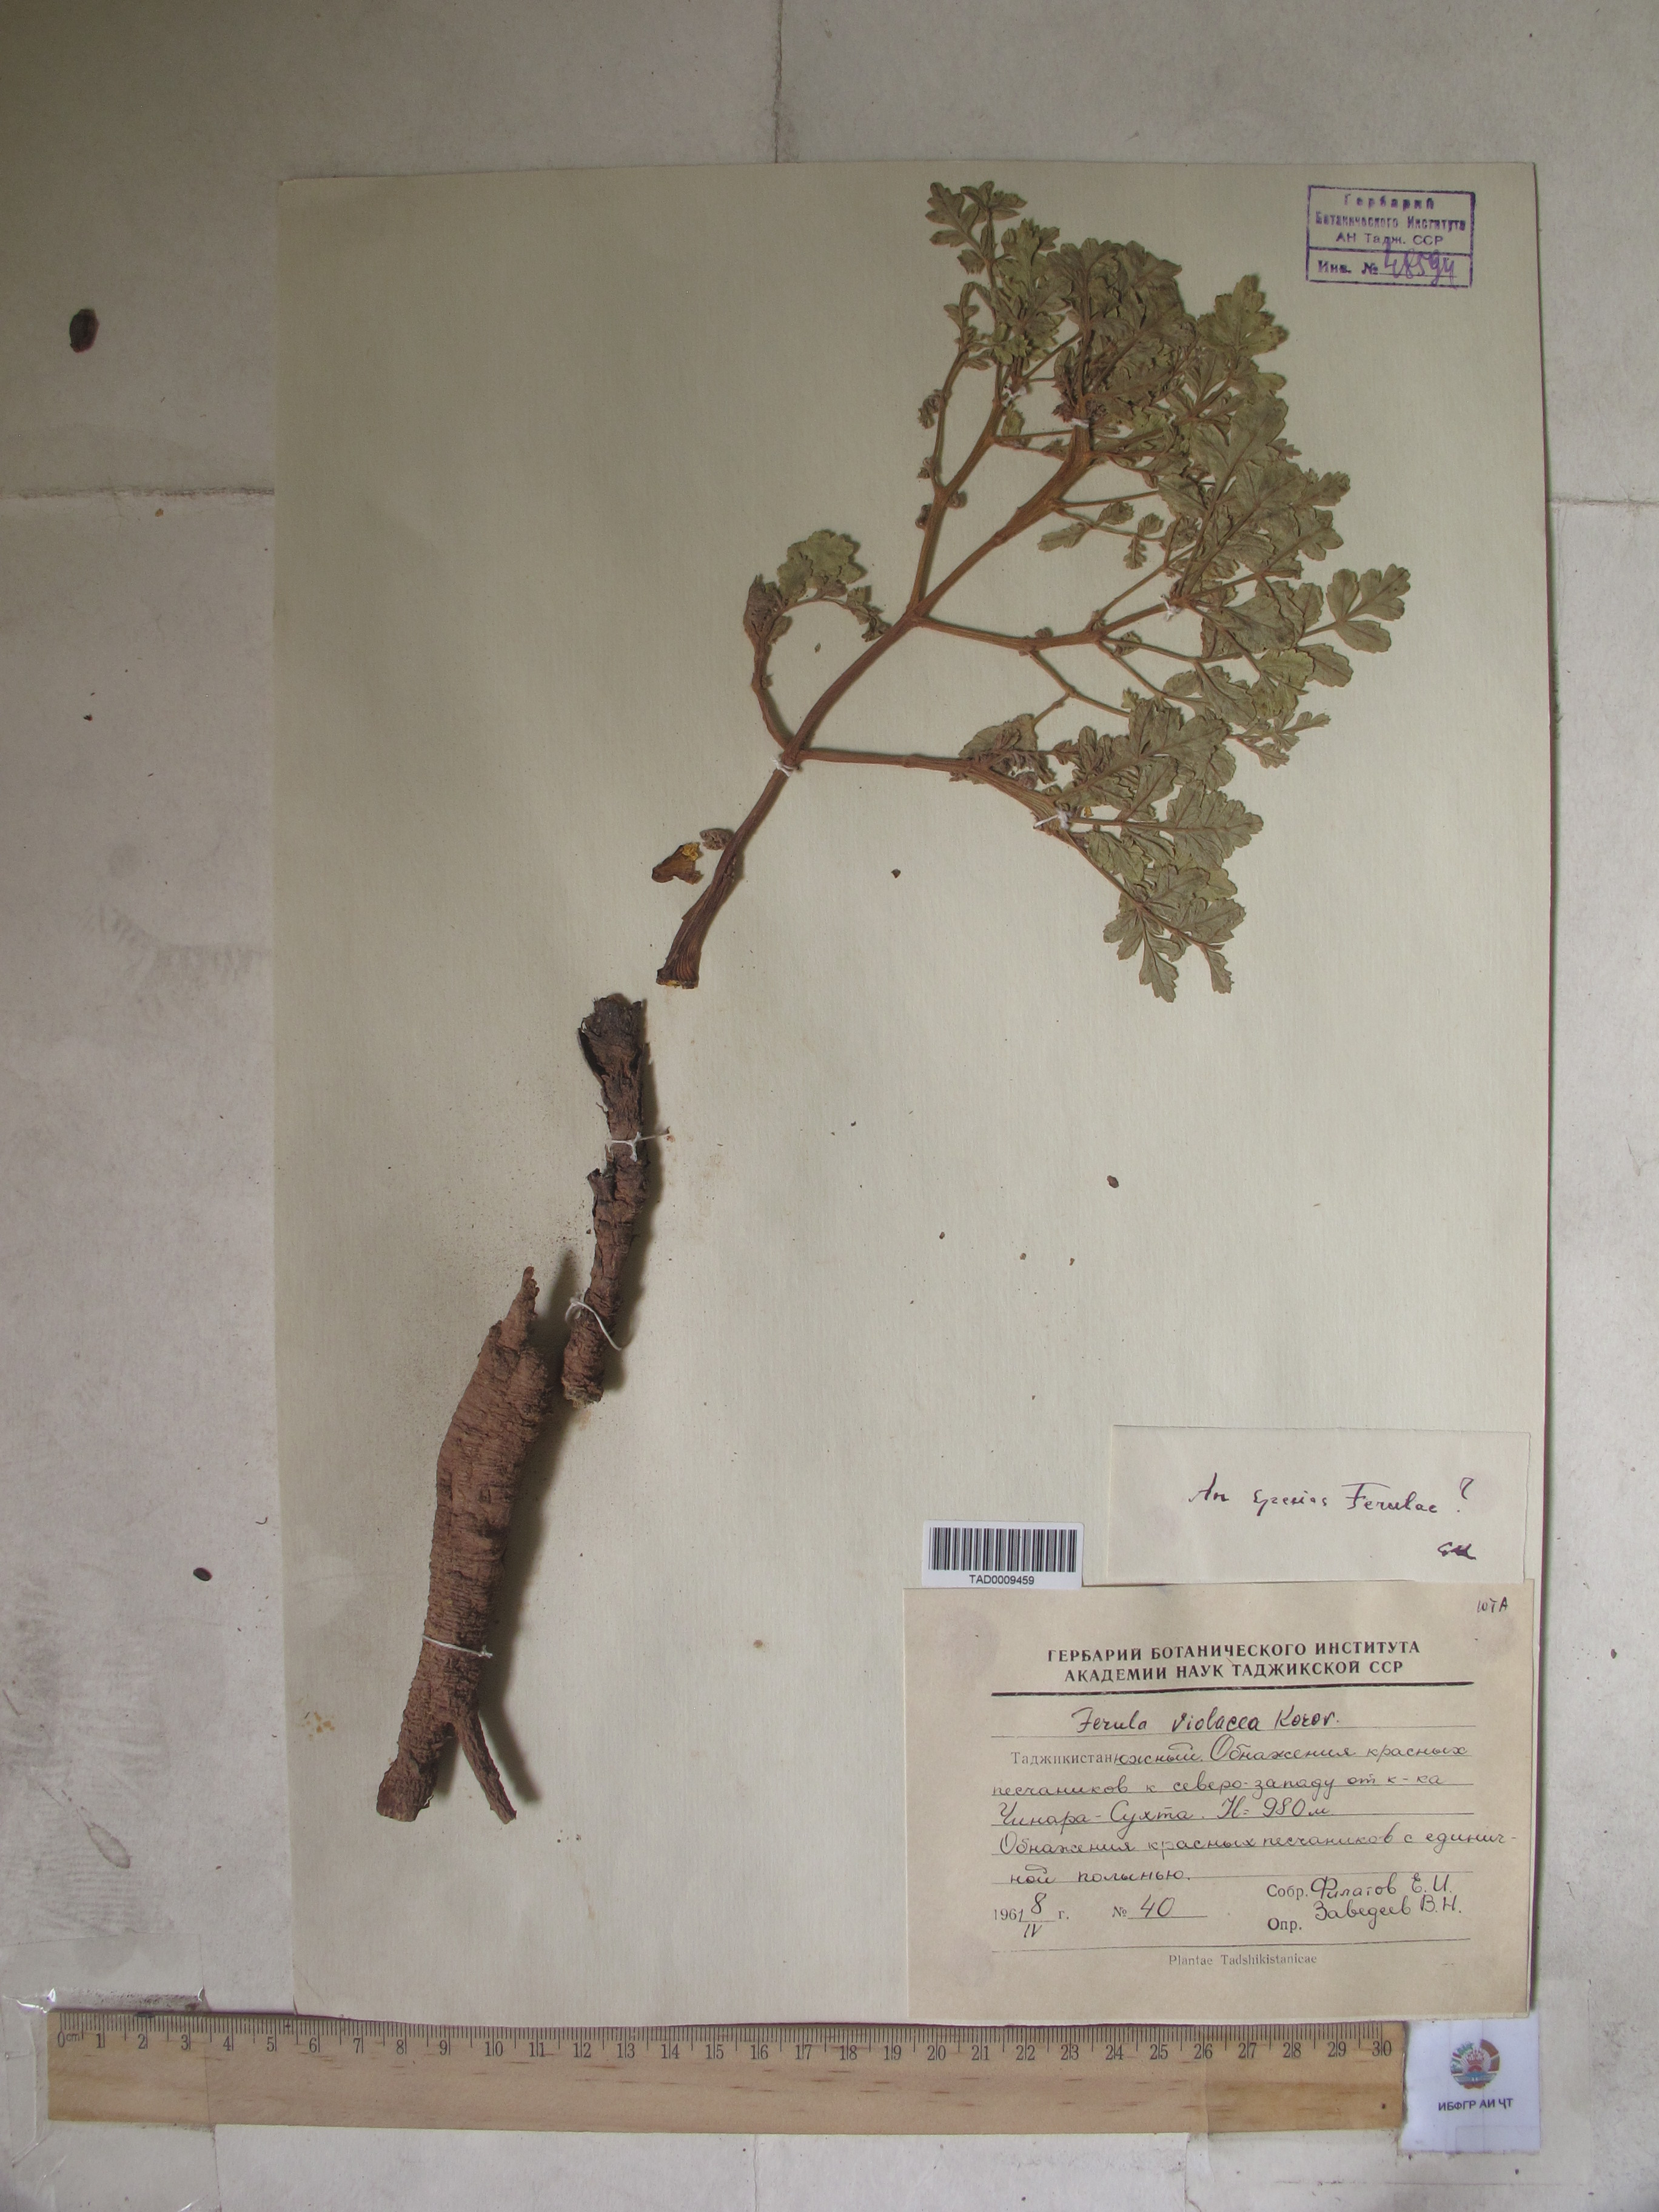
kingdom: Plantae
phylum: Tracheophyta
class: Magnoliopsida
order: Apiales
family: Apiaceae
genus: Ferula
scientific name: Ferula violacea
